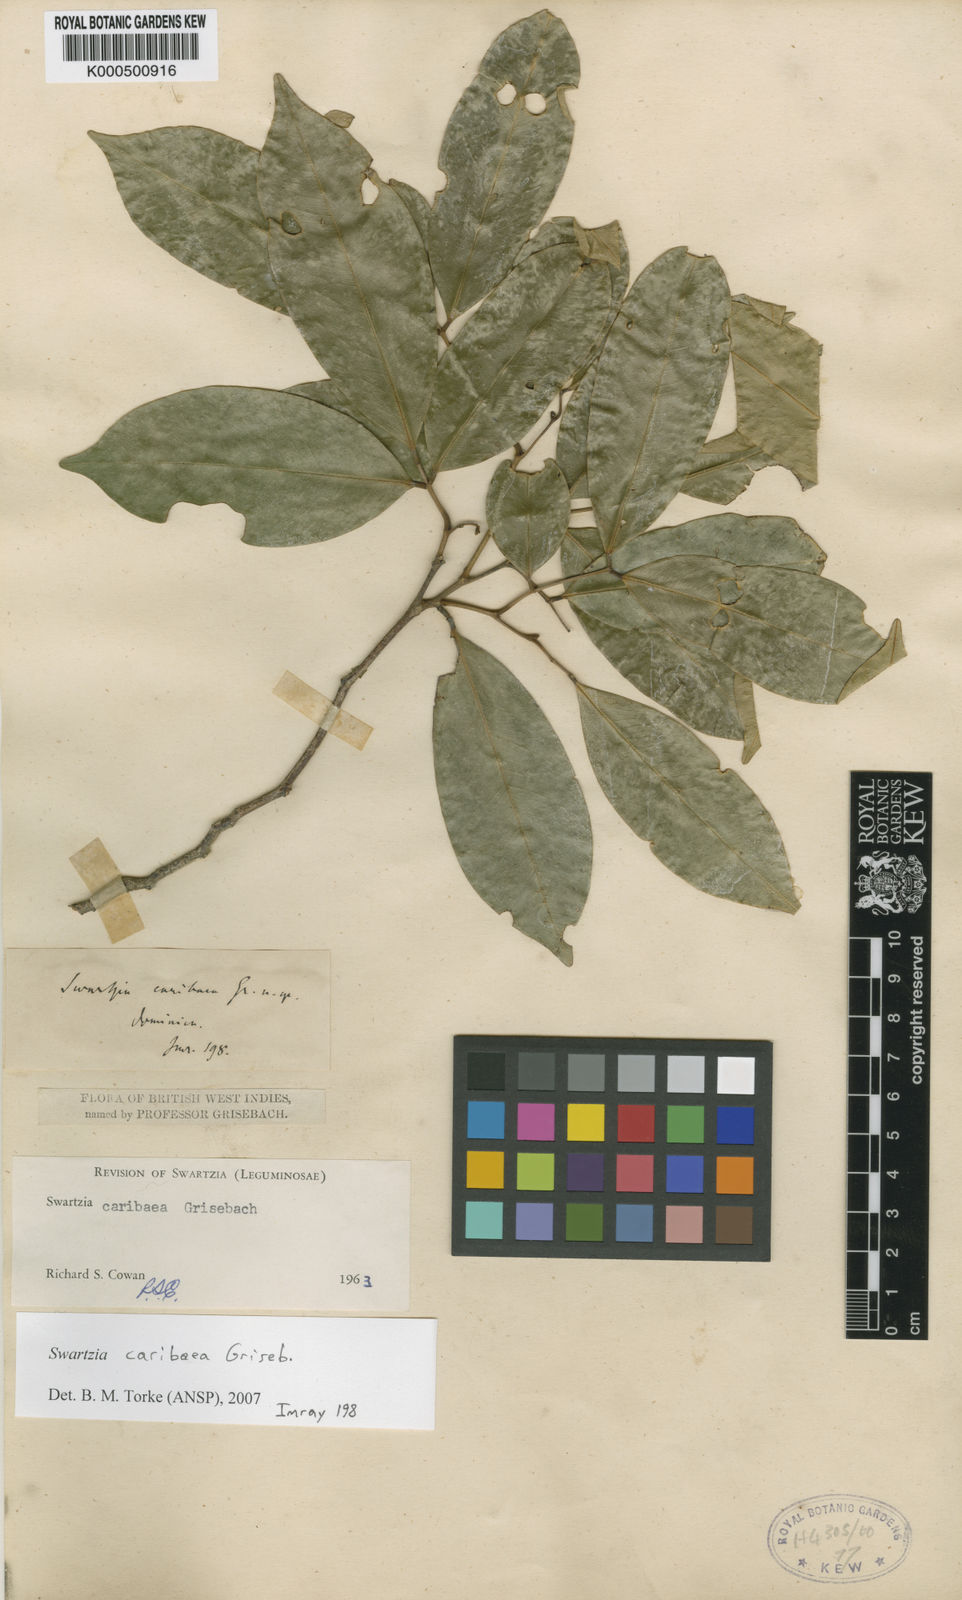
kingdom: Plantae
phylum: Tracheophyta
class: Magnoliopsida
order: Fabales
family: Fabaceae
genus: Swartzia
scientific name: Swartzia caribaea
